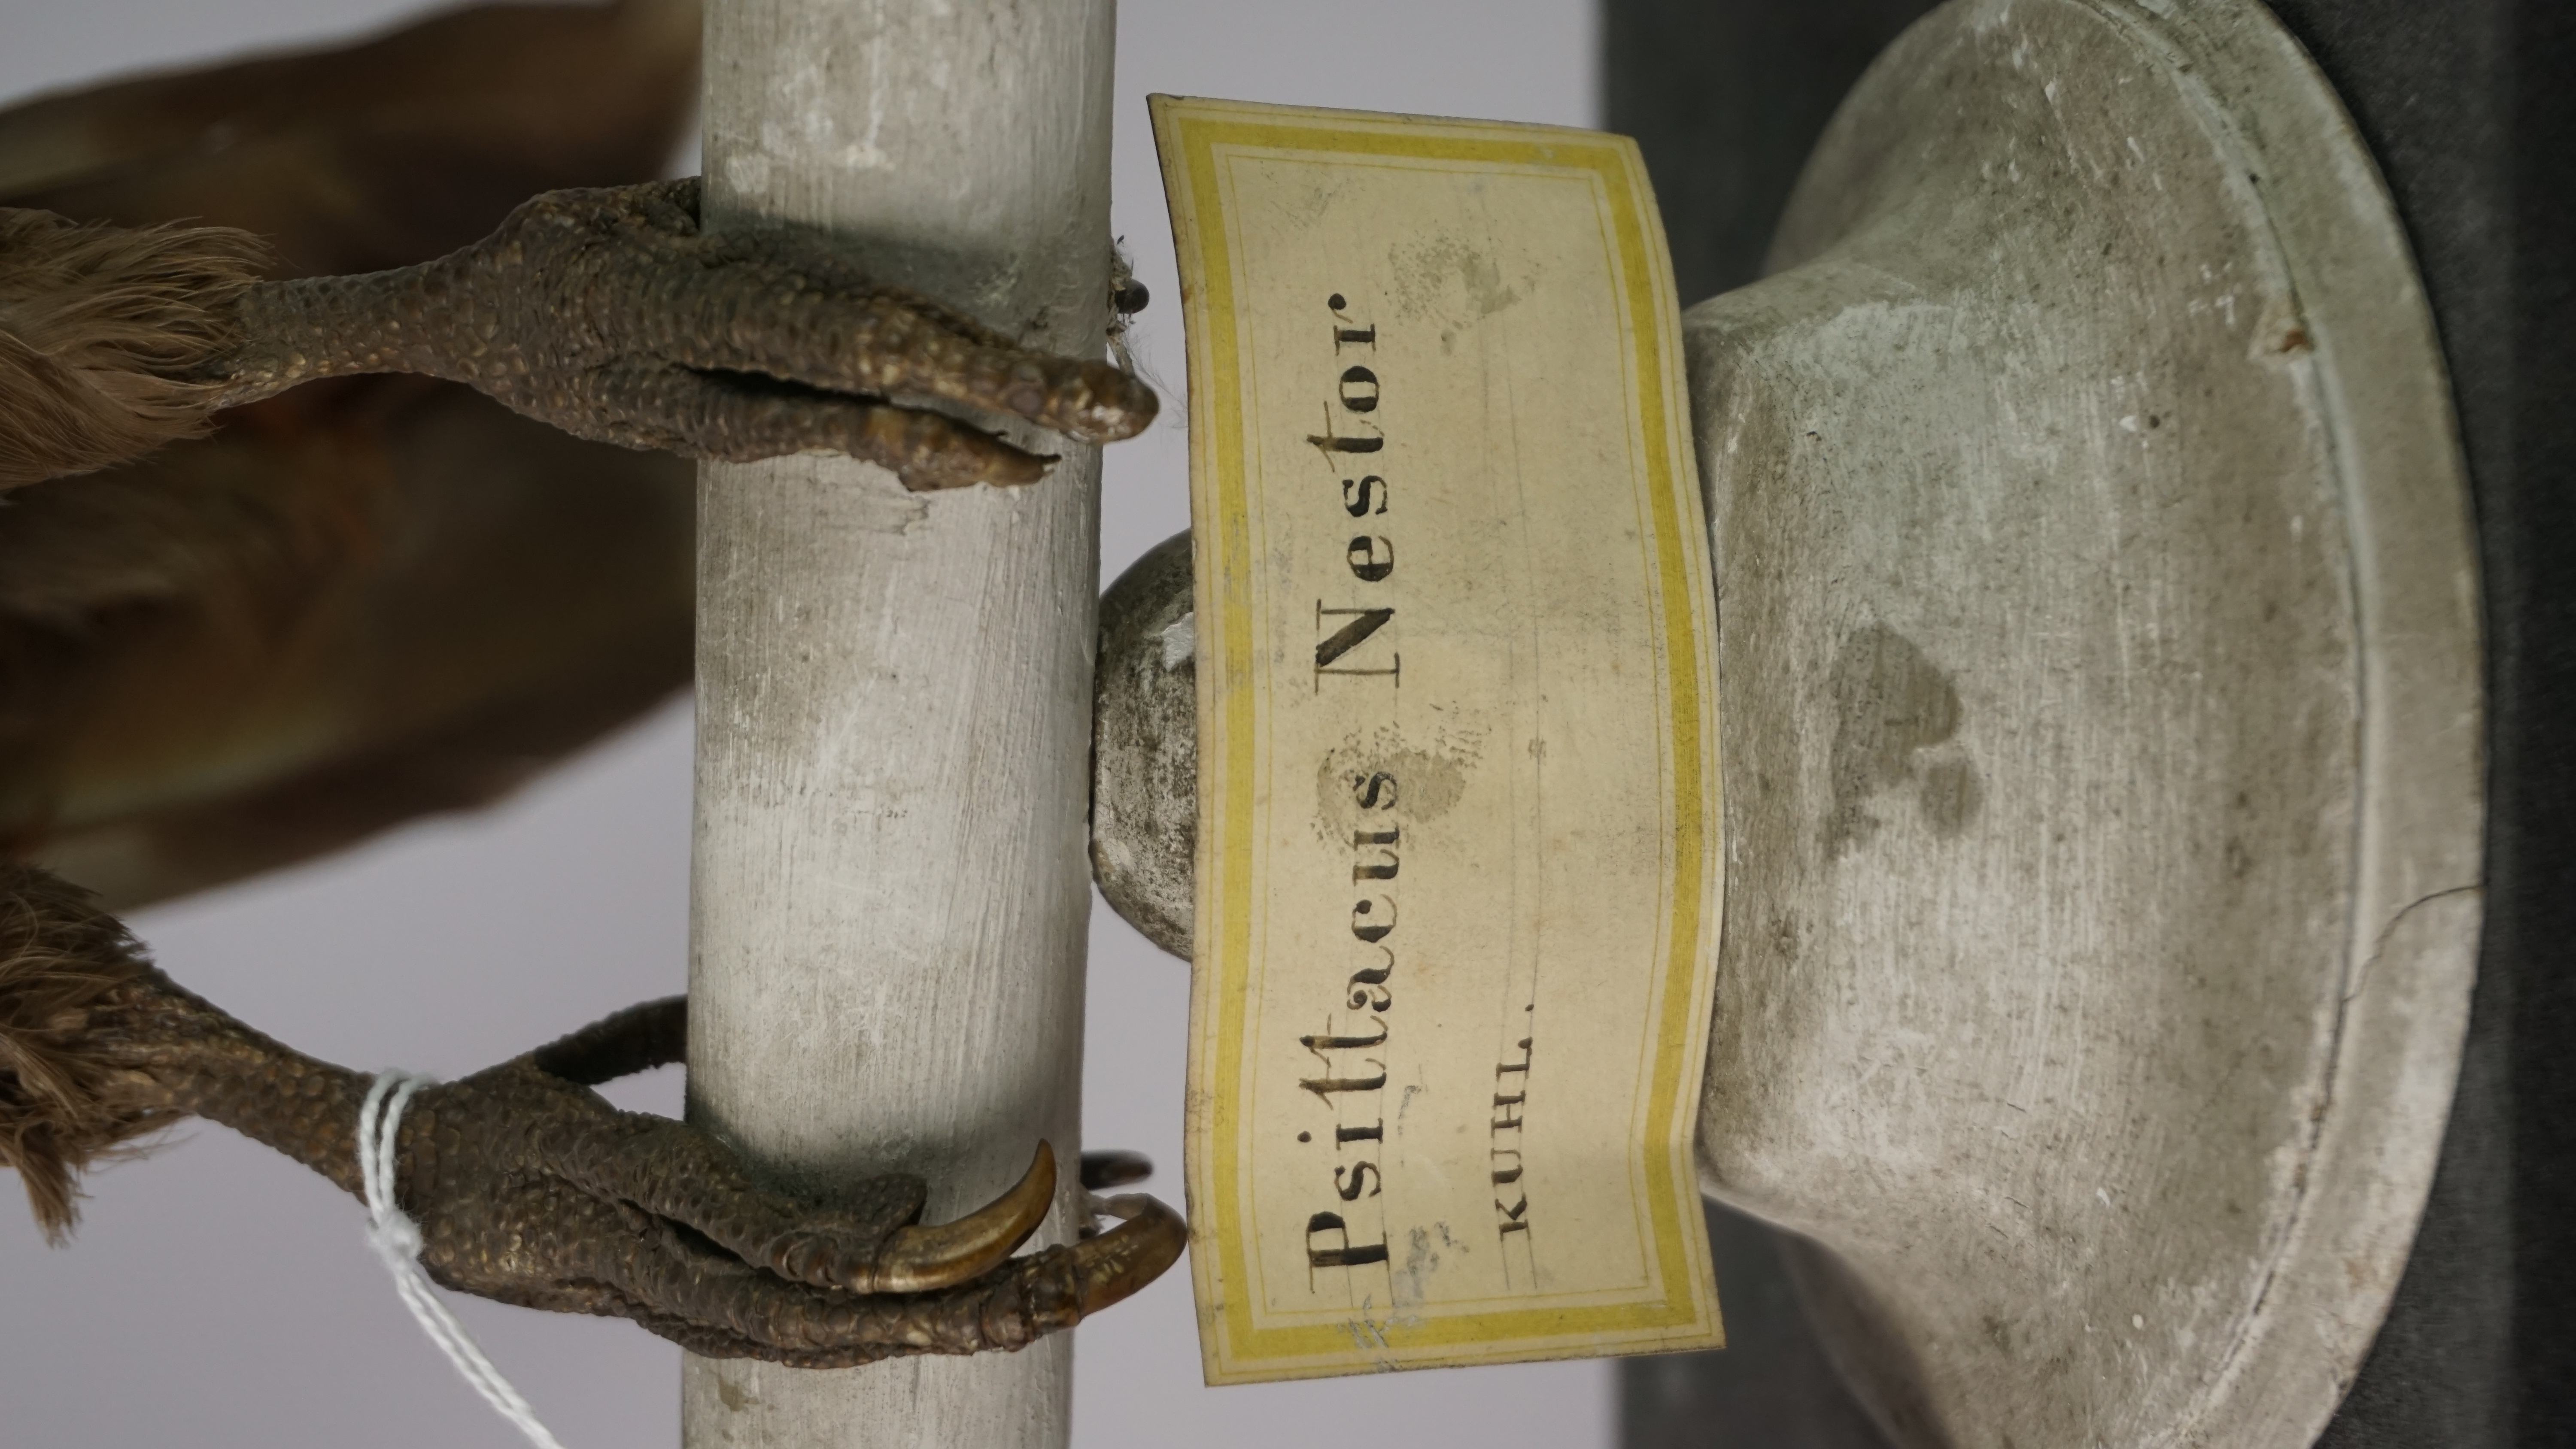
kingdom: Animalia
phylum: Chordata
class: Aves
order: Psittaciformes
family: Psittacidae
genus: Nestor
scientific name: Nestor meridionalis
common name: New zealand kaka
